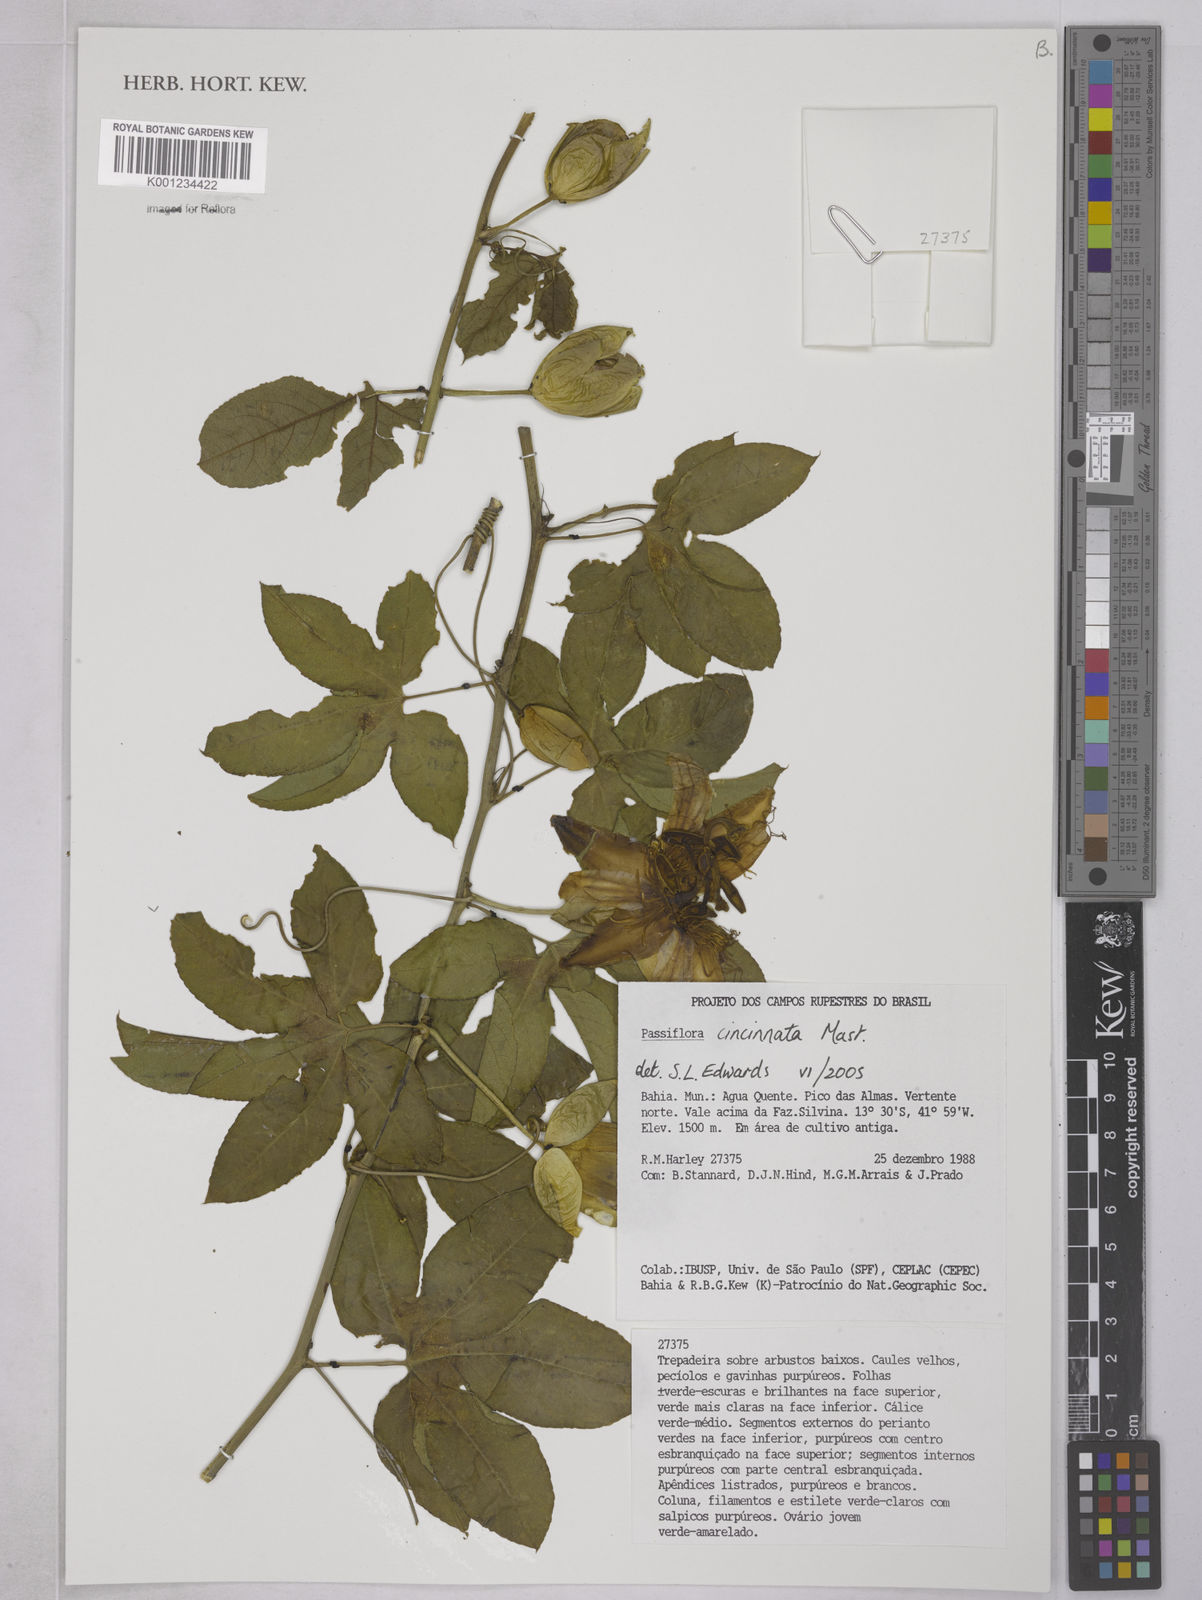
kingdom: Plantae
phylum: Tracheophyta
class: Magnoliopsida
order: Malpighiales
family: Passifloraceae
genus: Passiflora
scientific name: Passiflora cincinnata
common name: Crato passionvine
